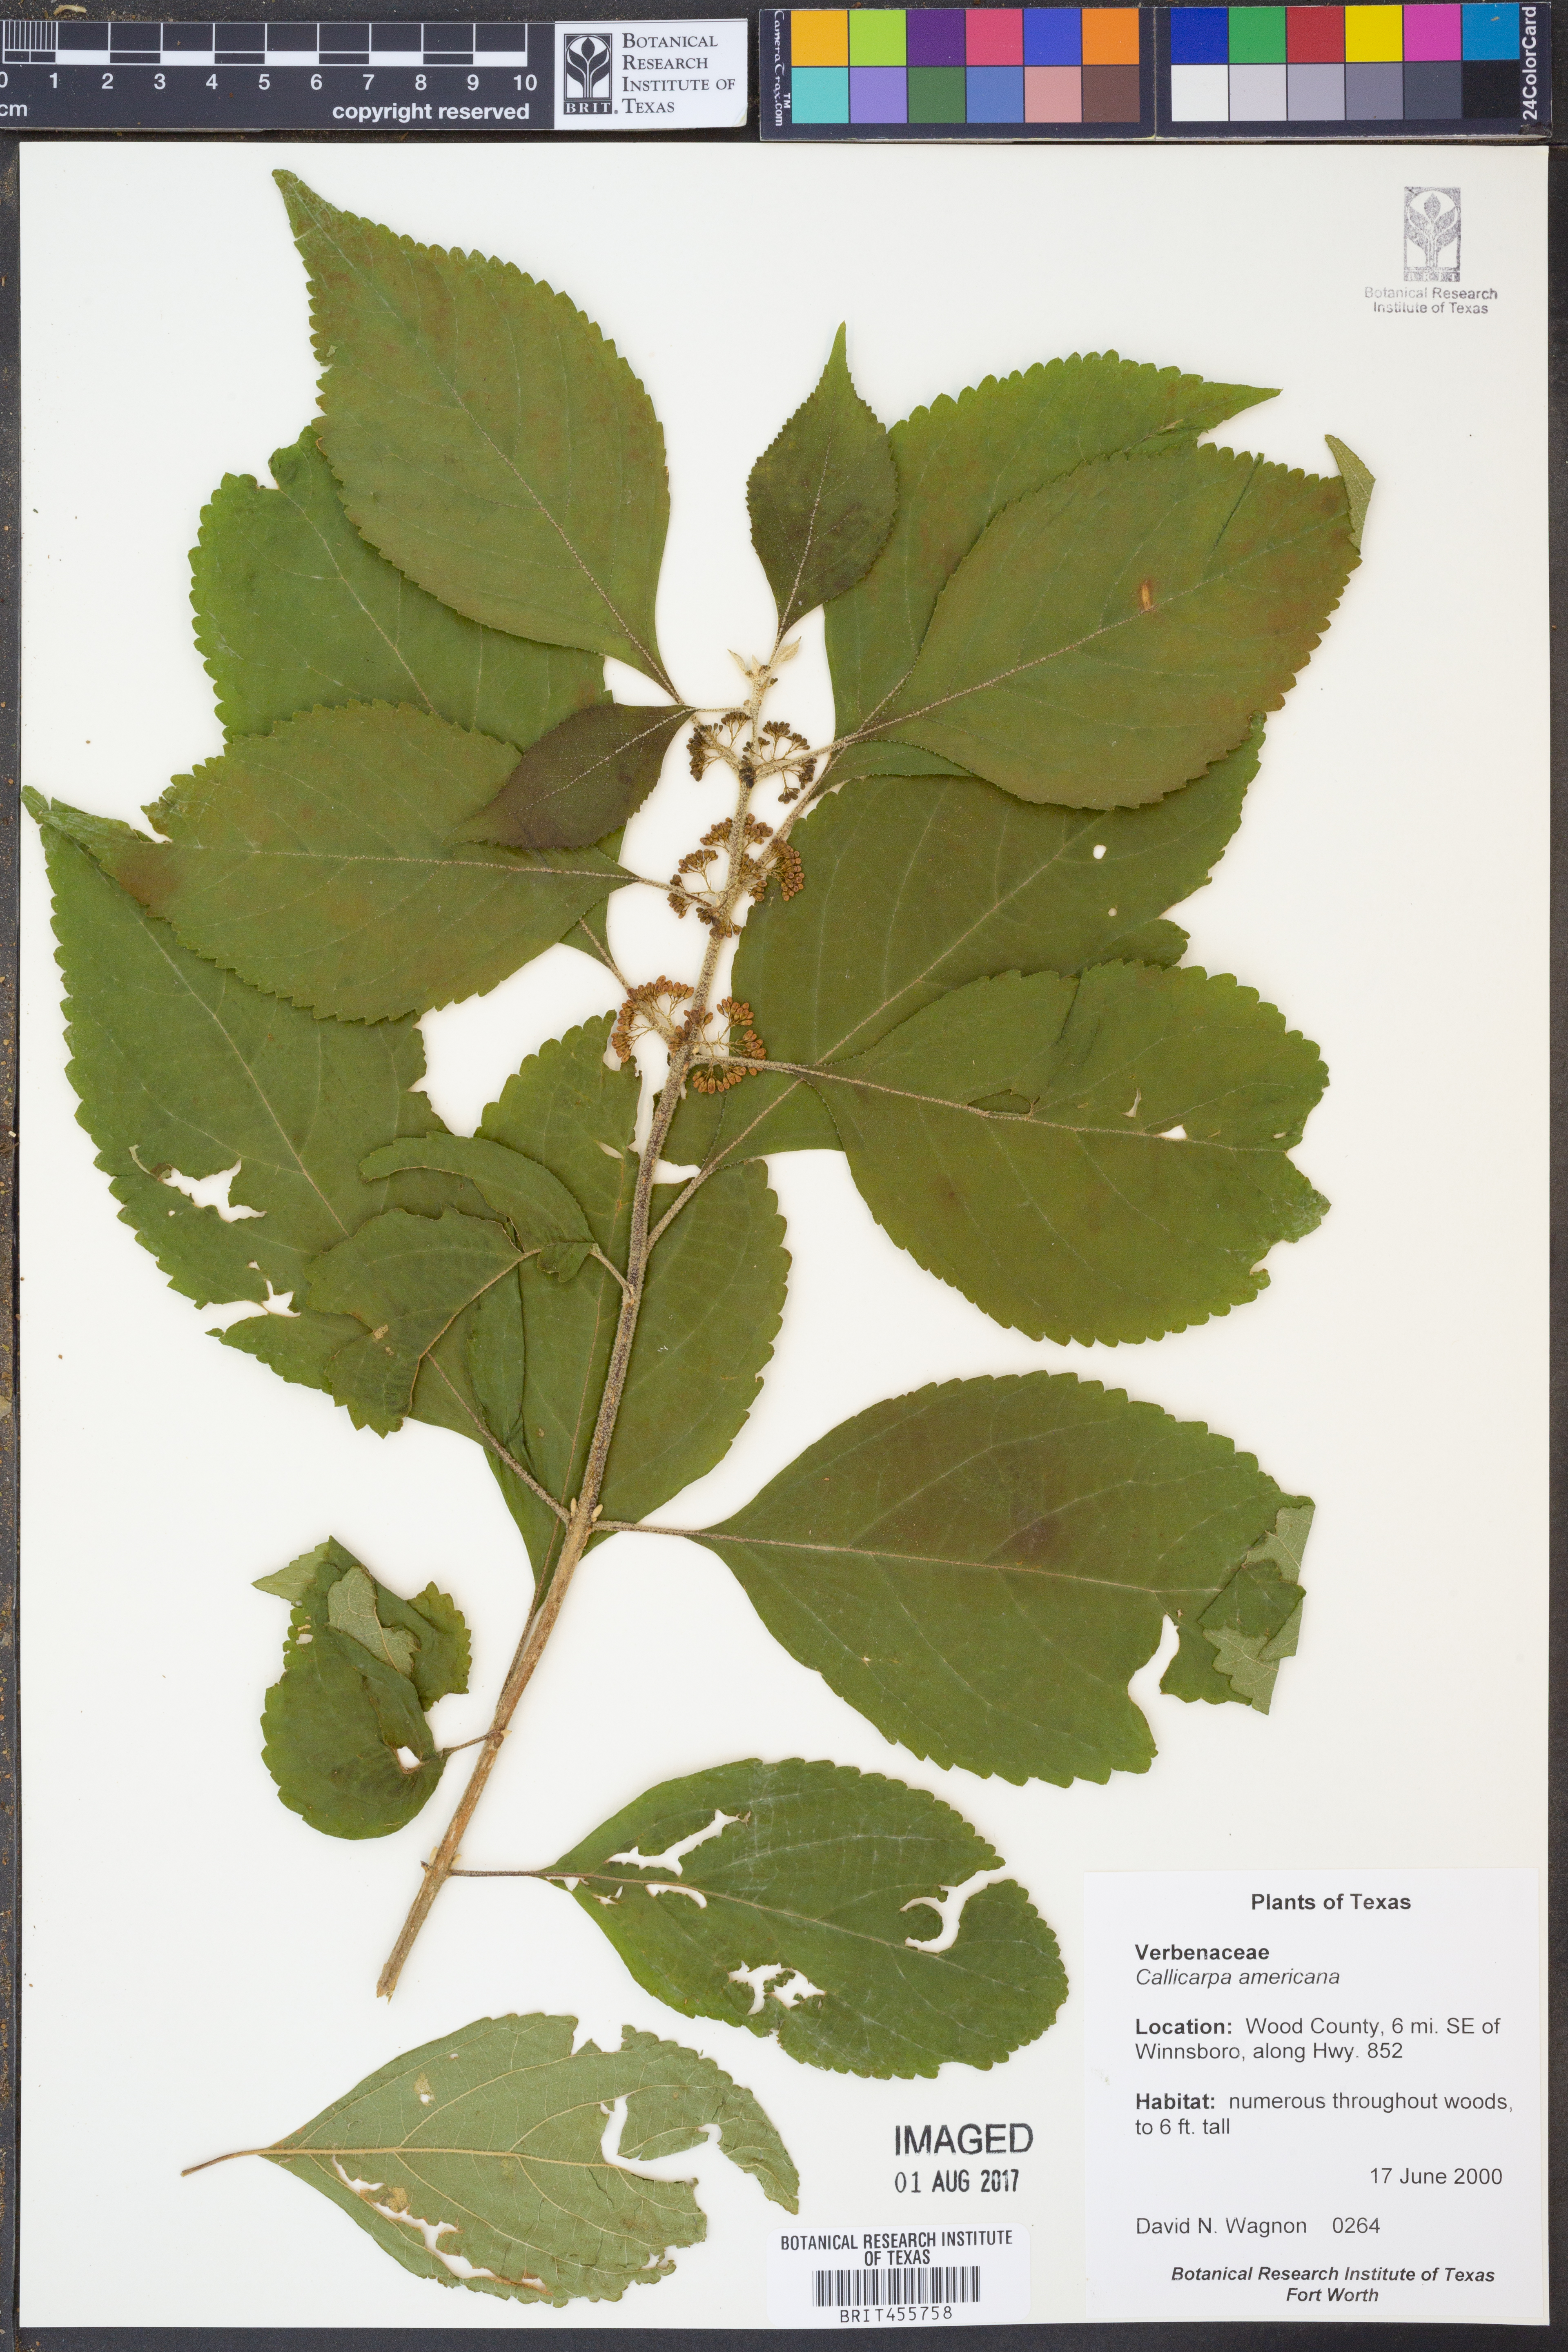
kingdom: Plantae
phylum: Tracheophyta
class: Magnoliopsida
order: Lamiales
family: Lamiaceae
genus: Callicarpa
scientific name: Callicarpa americana
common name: American beautyberry
